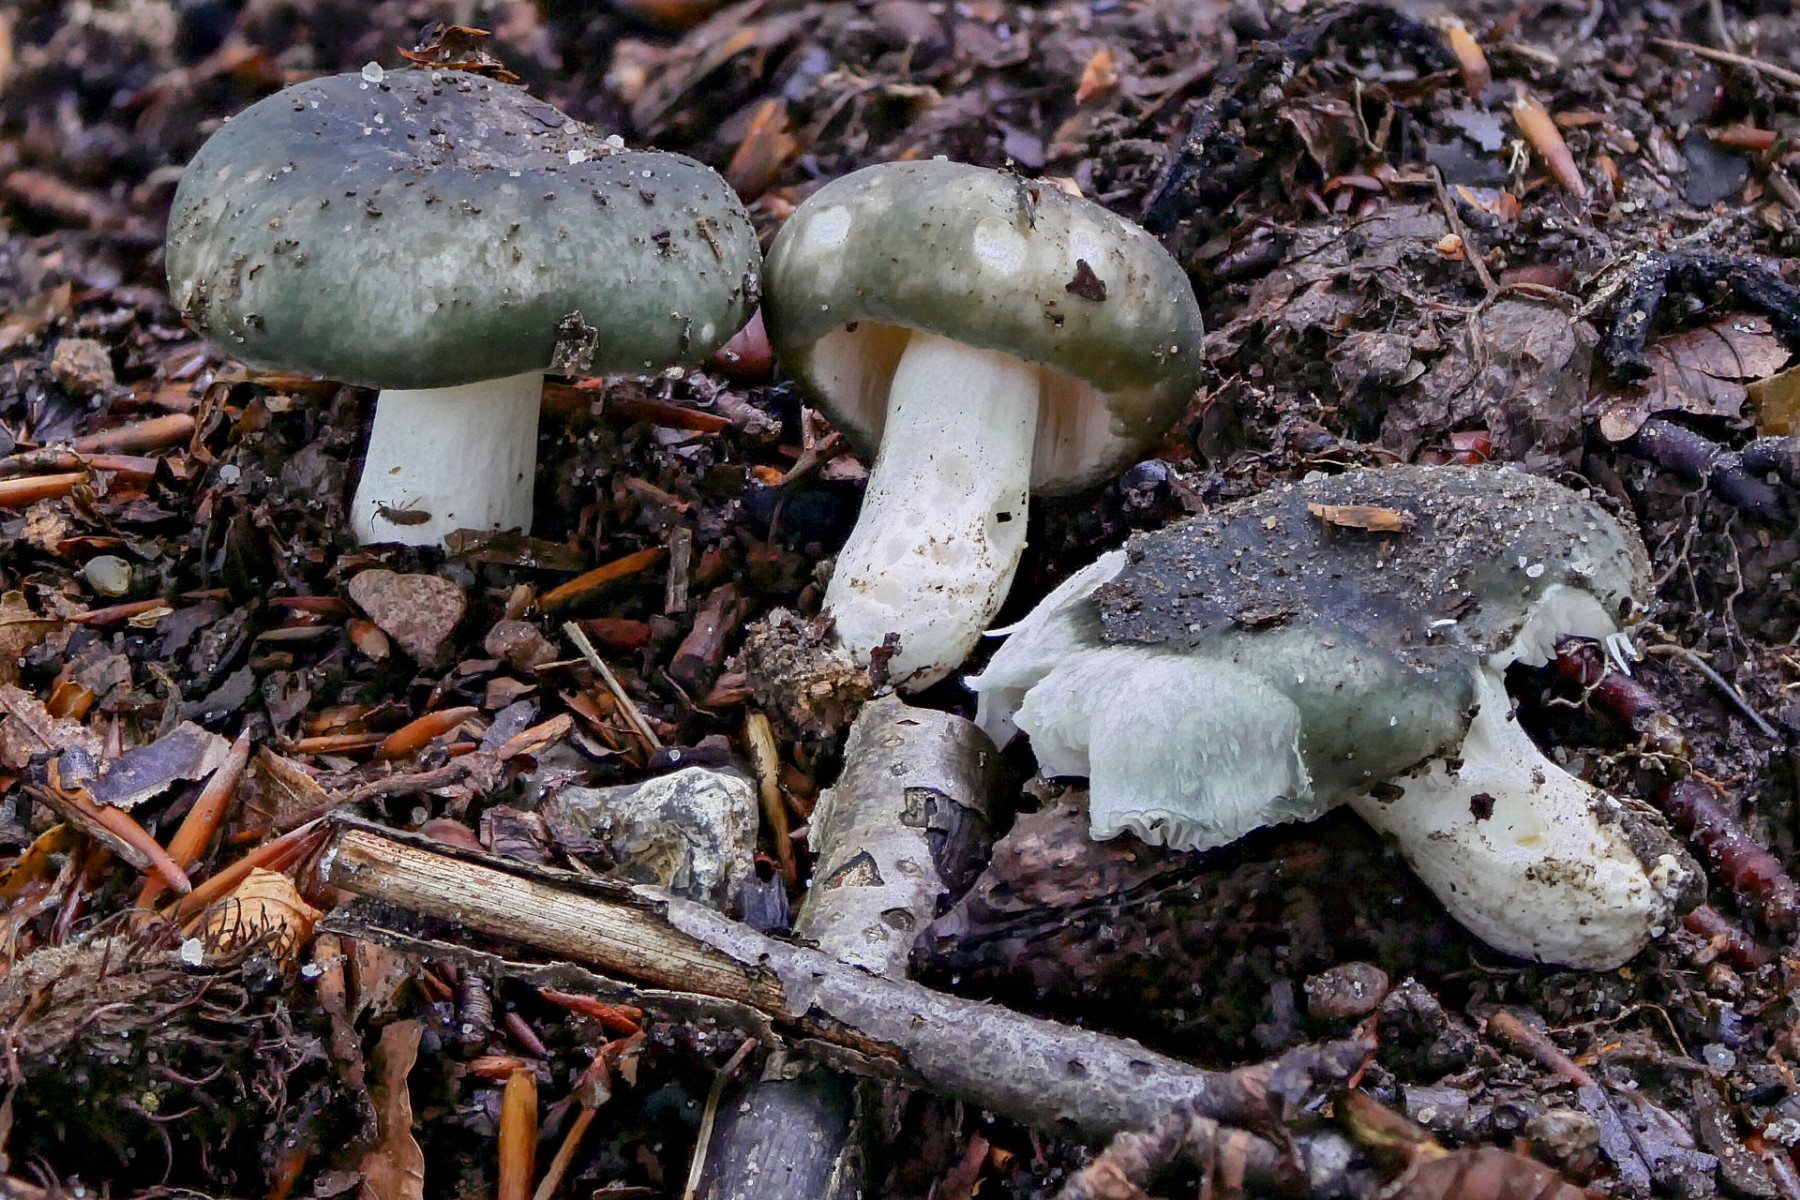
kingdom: Fungi
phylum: Basidiomycota
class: Agaricomycetes
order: Russulales
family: Russulaceae
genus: Russula
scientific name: Russula ionochlora
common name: violetgrøn skørhat
